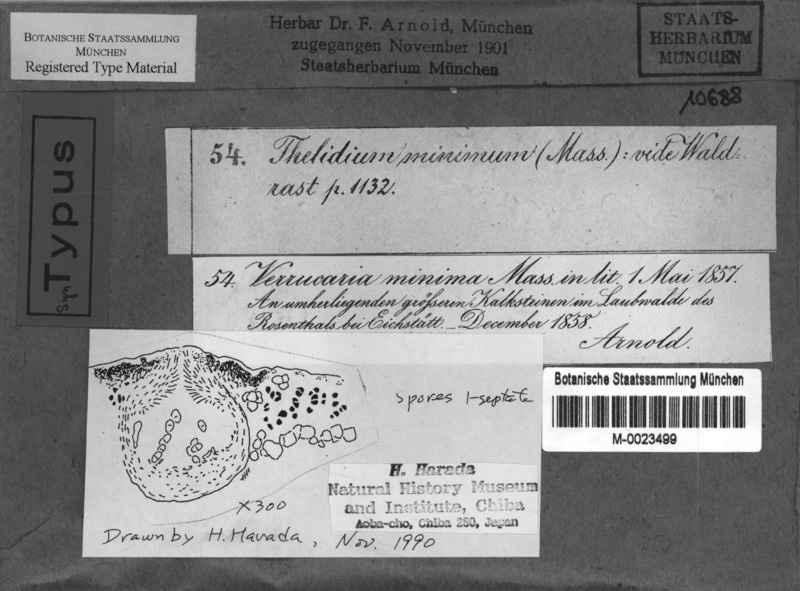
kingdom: Fungi
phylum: Ascomycota
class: Eurotiomycetes
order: Verrucariales
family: Verrucariaceae
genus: Thelidium
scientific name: Thelidium minimum
